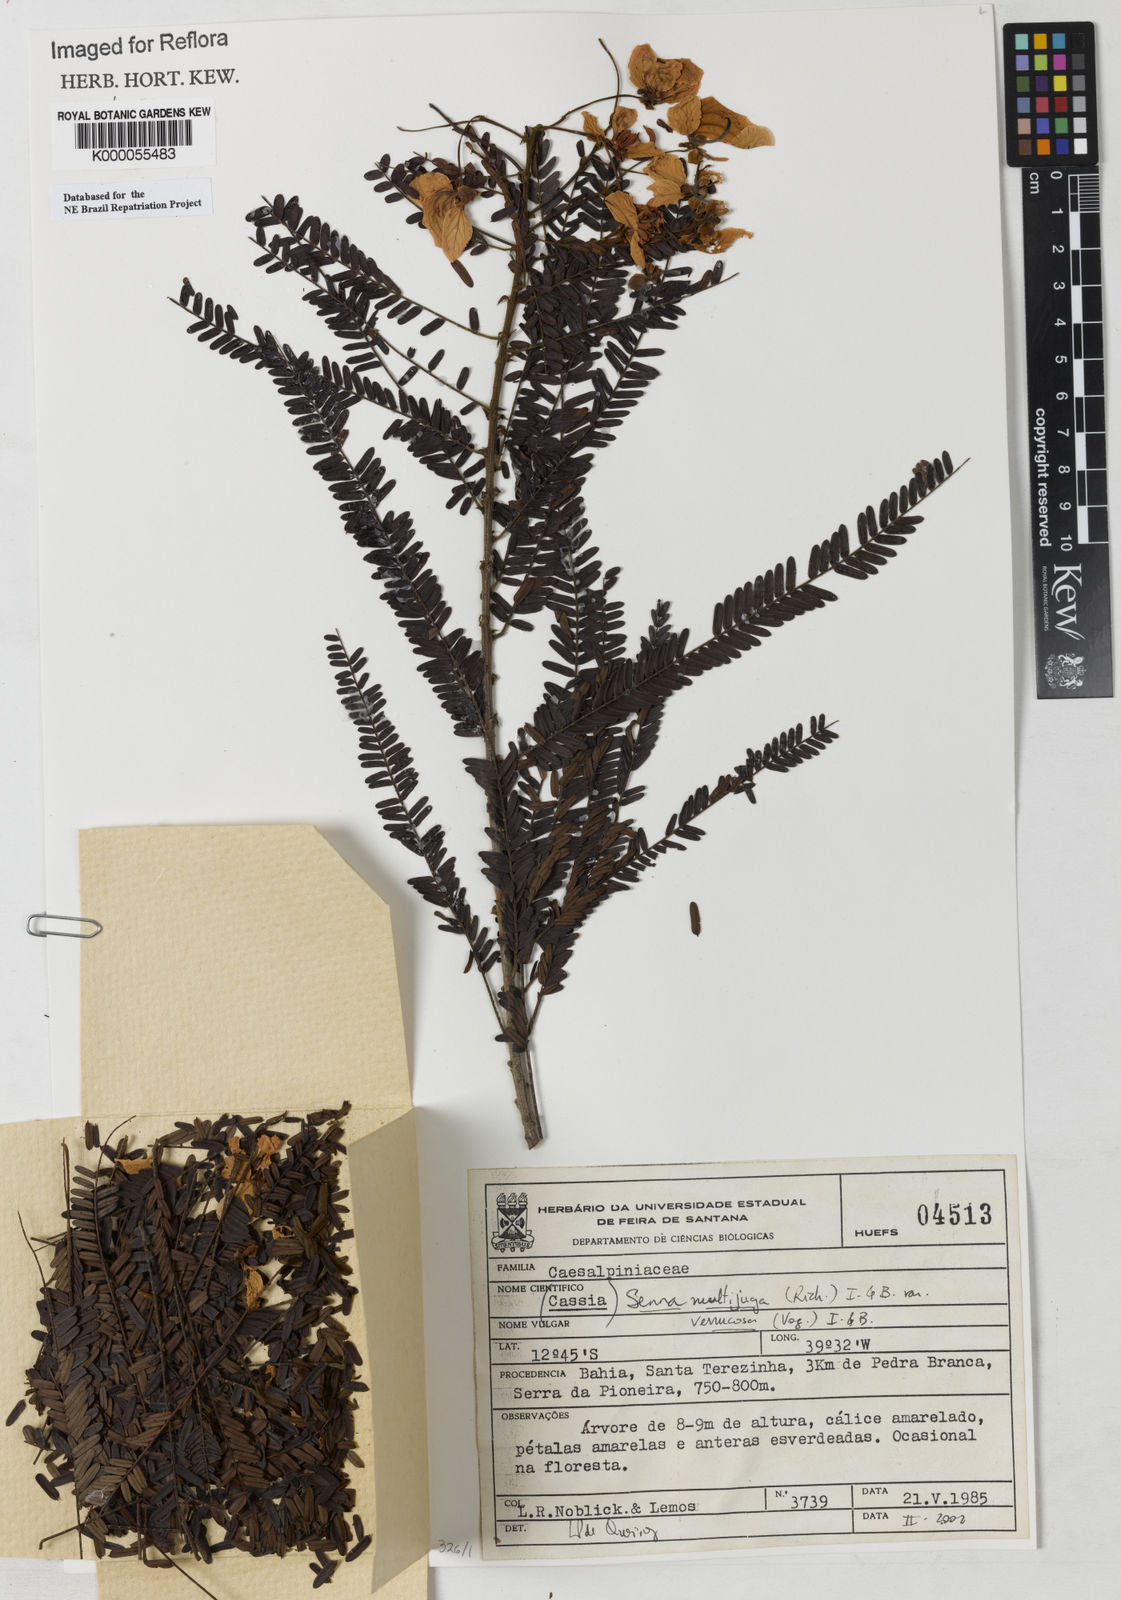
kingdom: Plantae
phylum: Tracheophyta
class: Magnoliopsida
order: Fabales
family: Fabaceae
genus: Senna
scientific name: Senna multijuga
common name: False sicklepod
